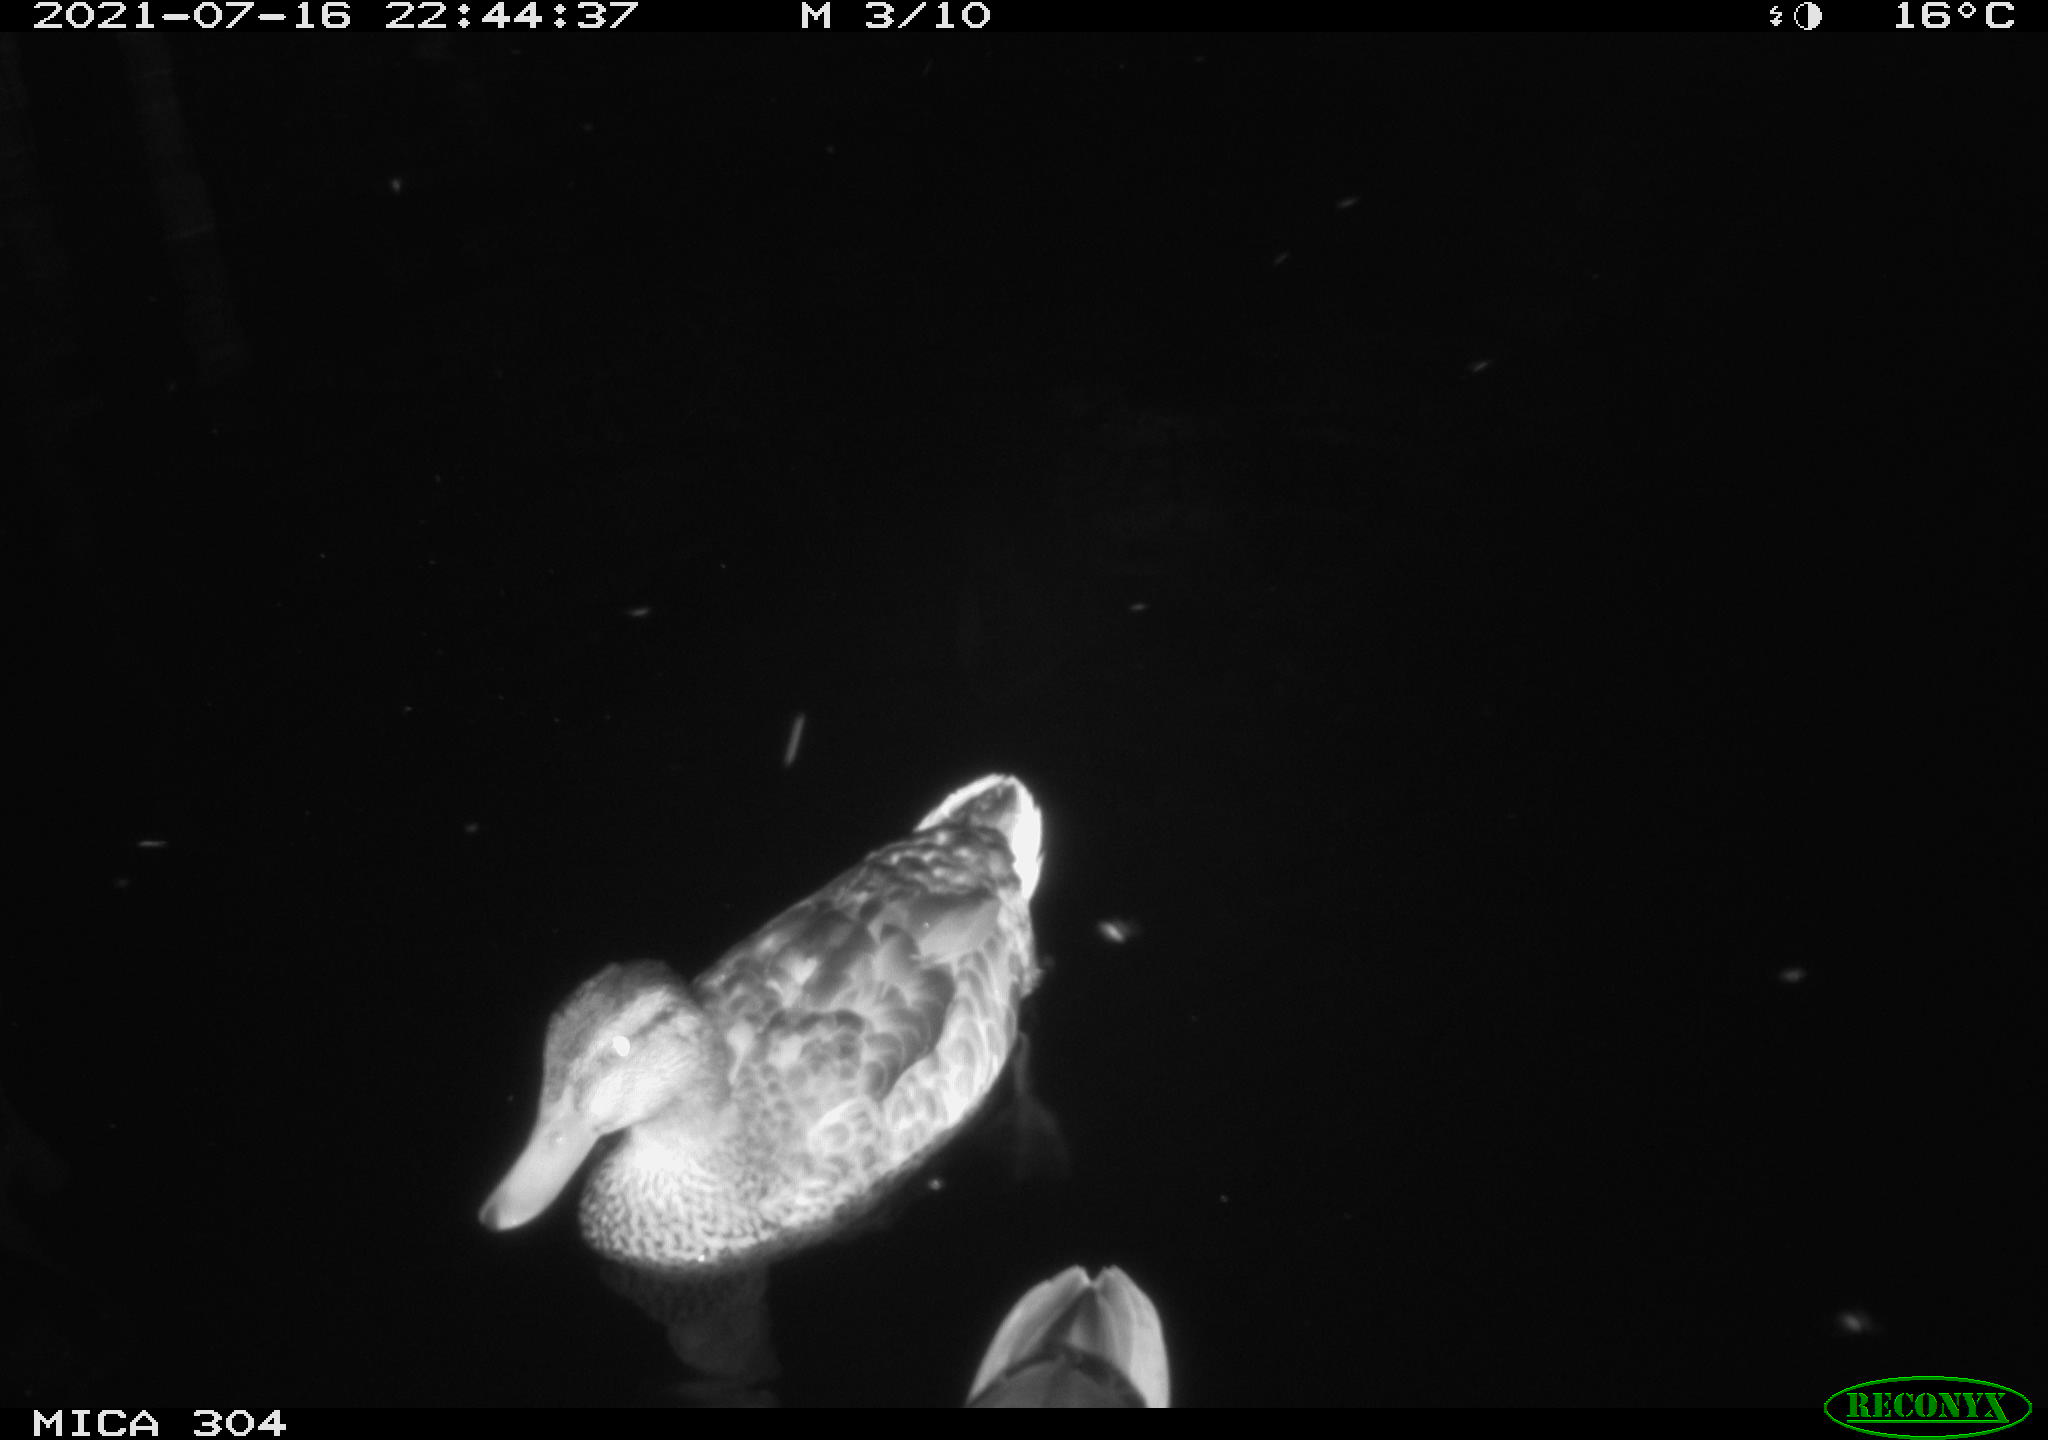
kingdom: Animalia
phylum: Chordata
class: Aves
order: Anseriformes
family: Anatidae
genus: Mareca
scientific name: Mareca strepera
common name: Gadwall
